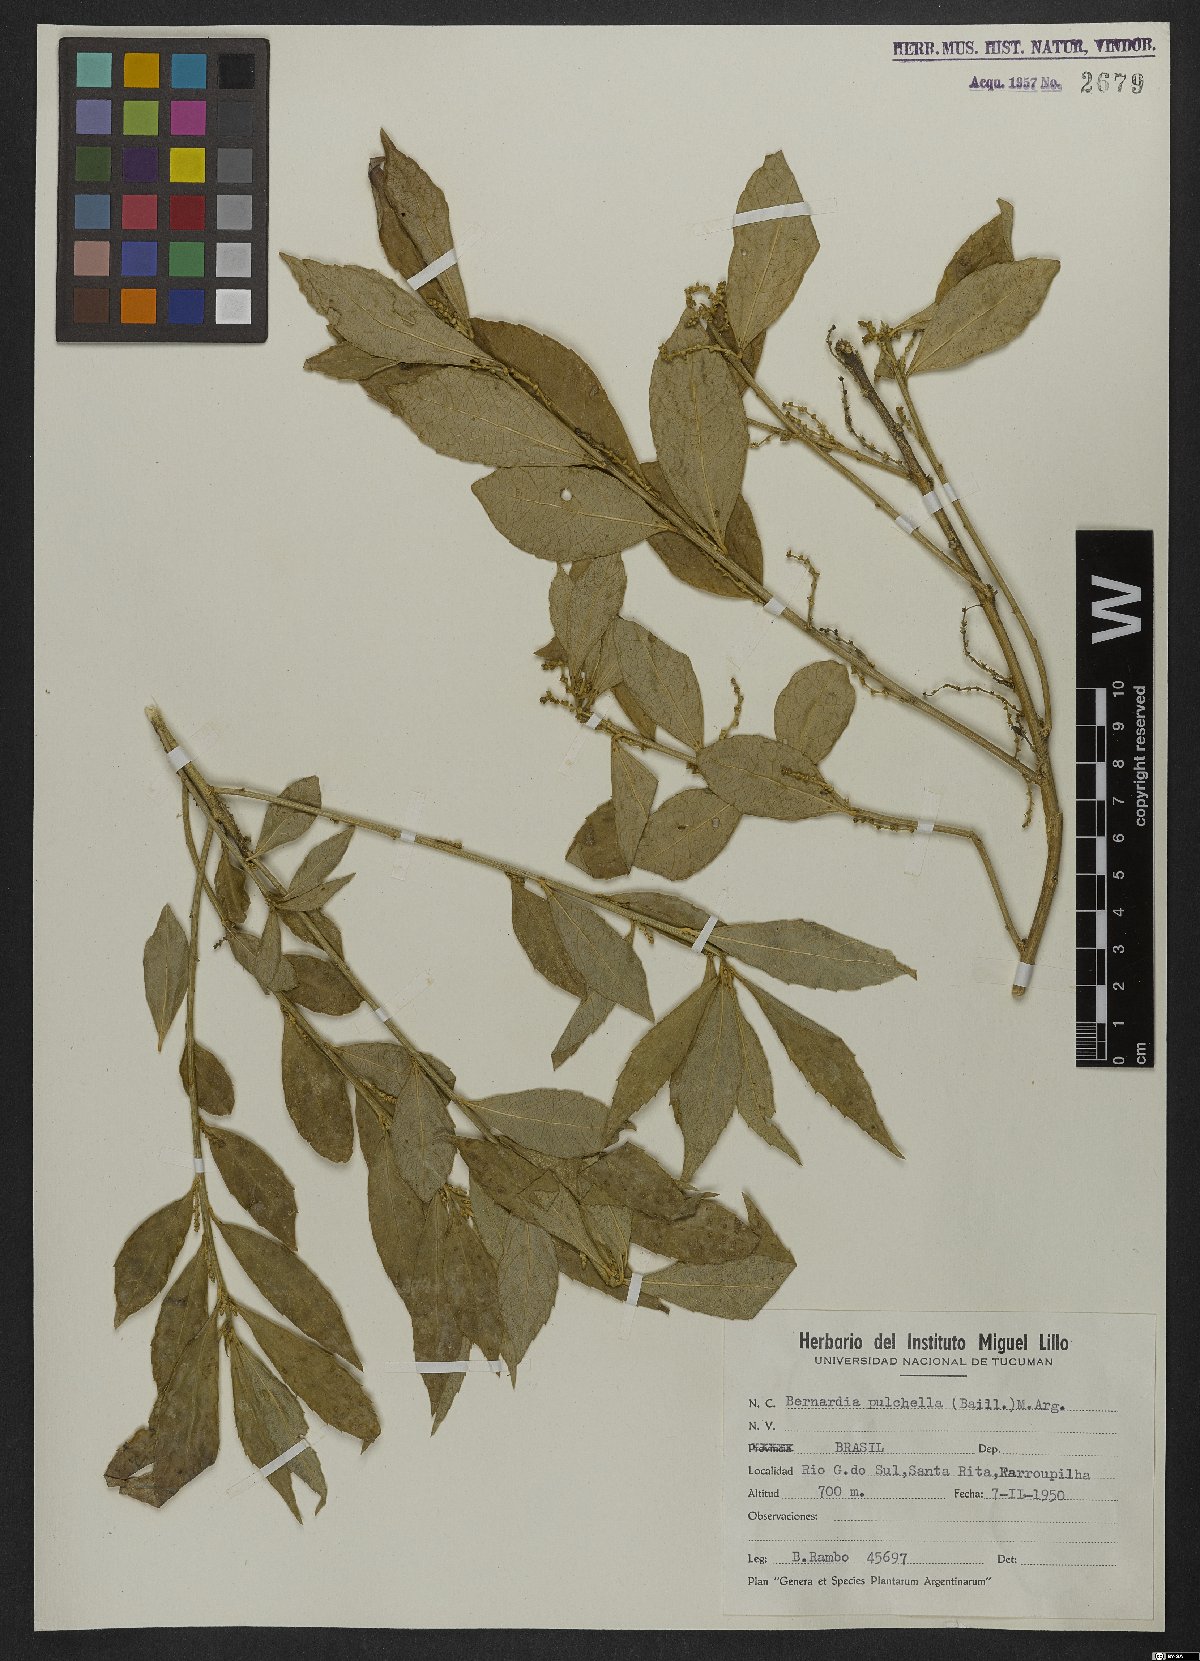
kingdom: Plantae
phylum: Tracheophyta
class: Magnoliopsida
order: Malpighiales
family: Euphorbiaceae
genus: Bernardia
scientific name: Bernardia pulchella
